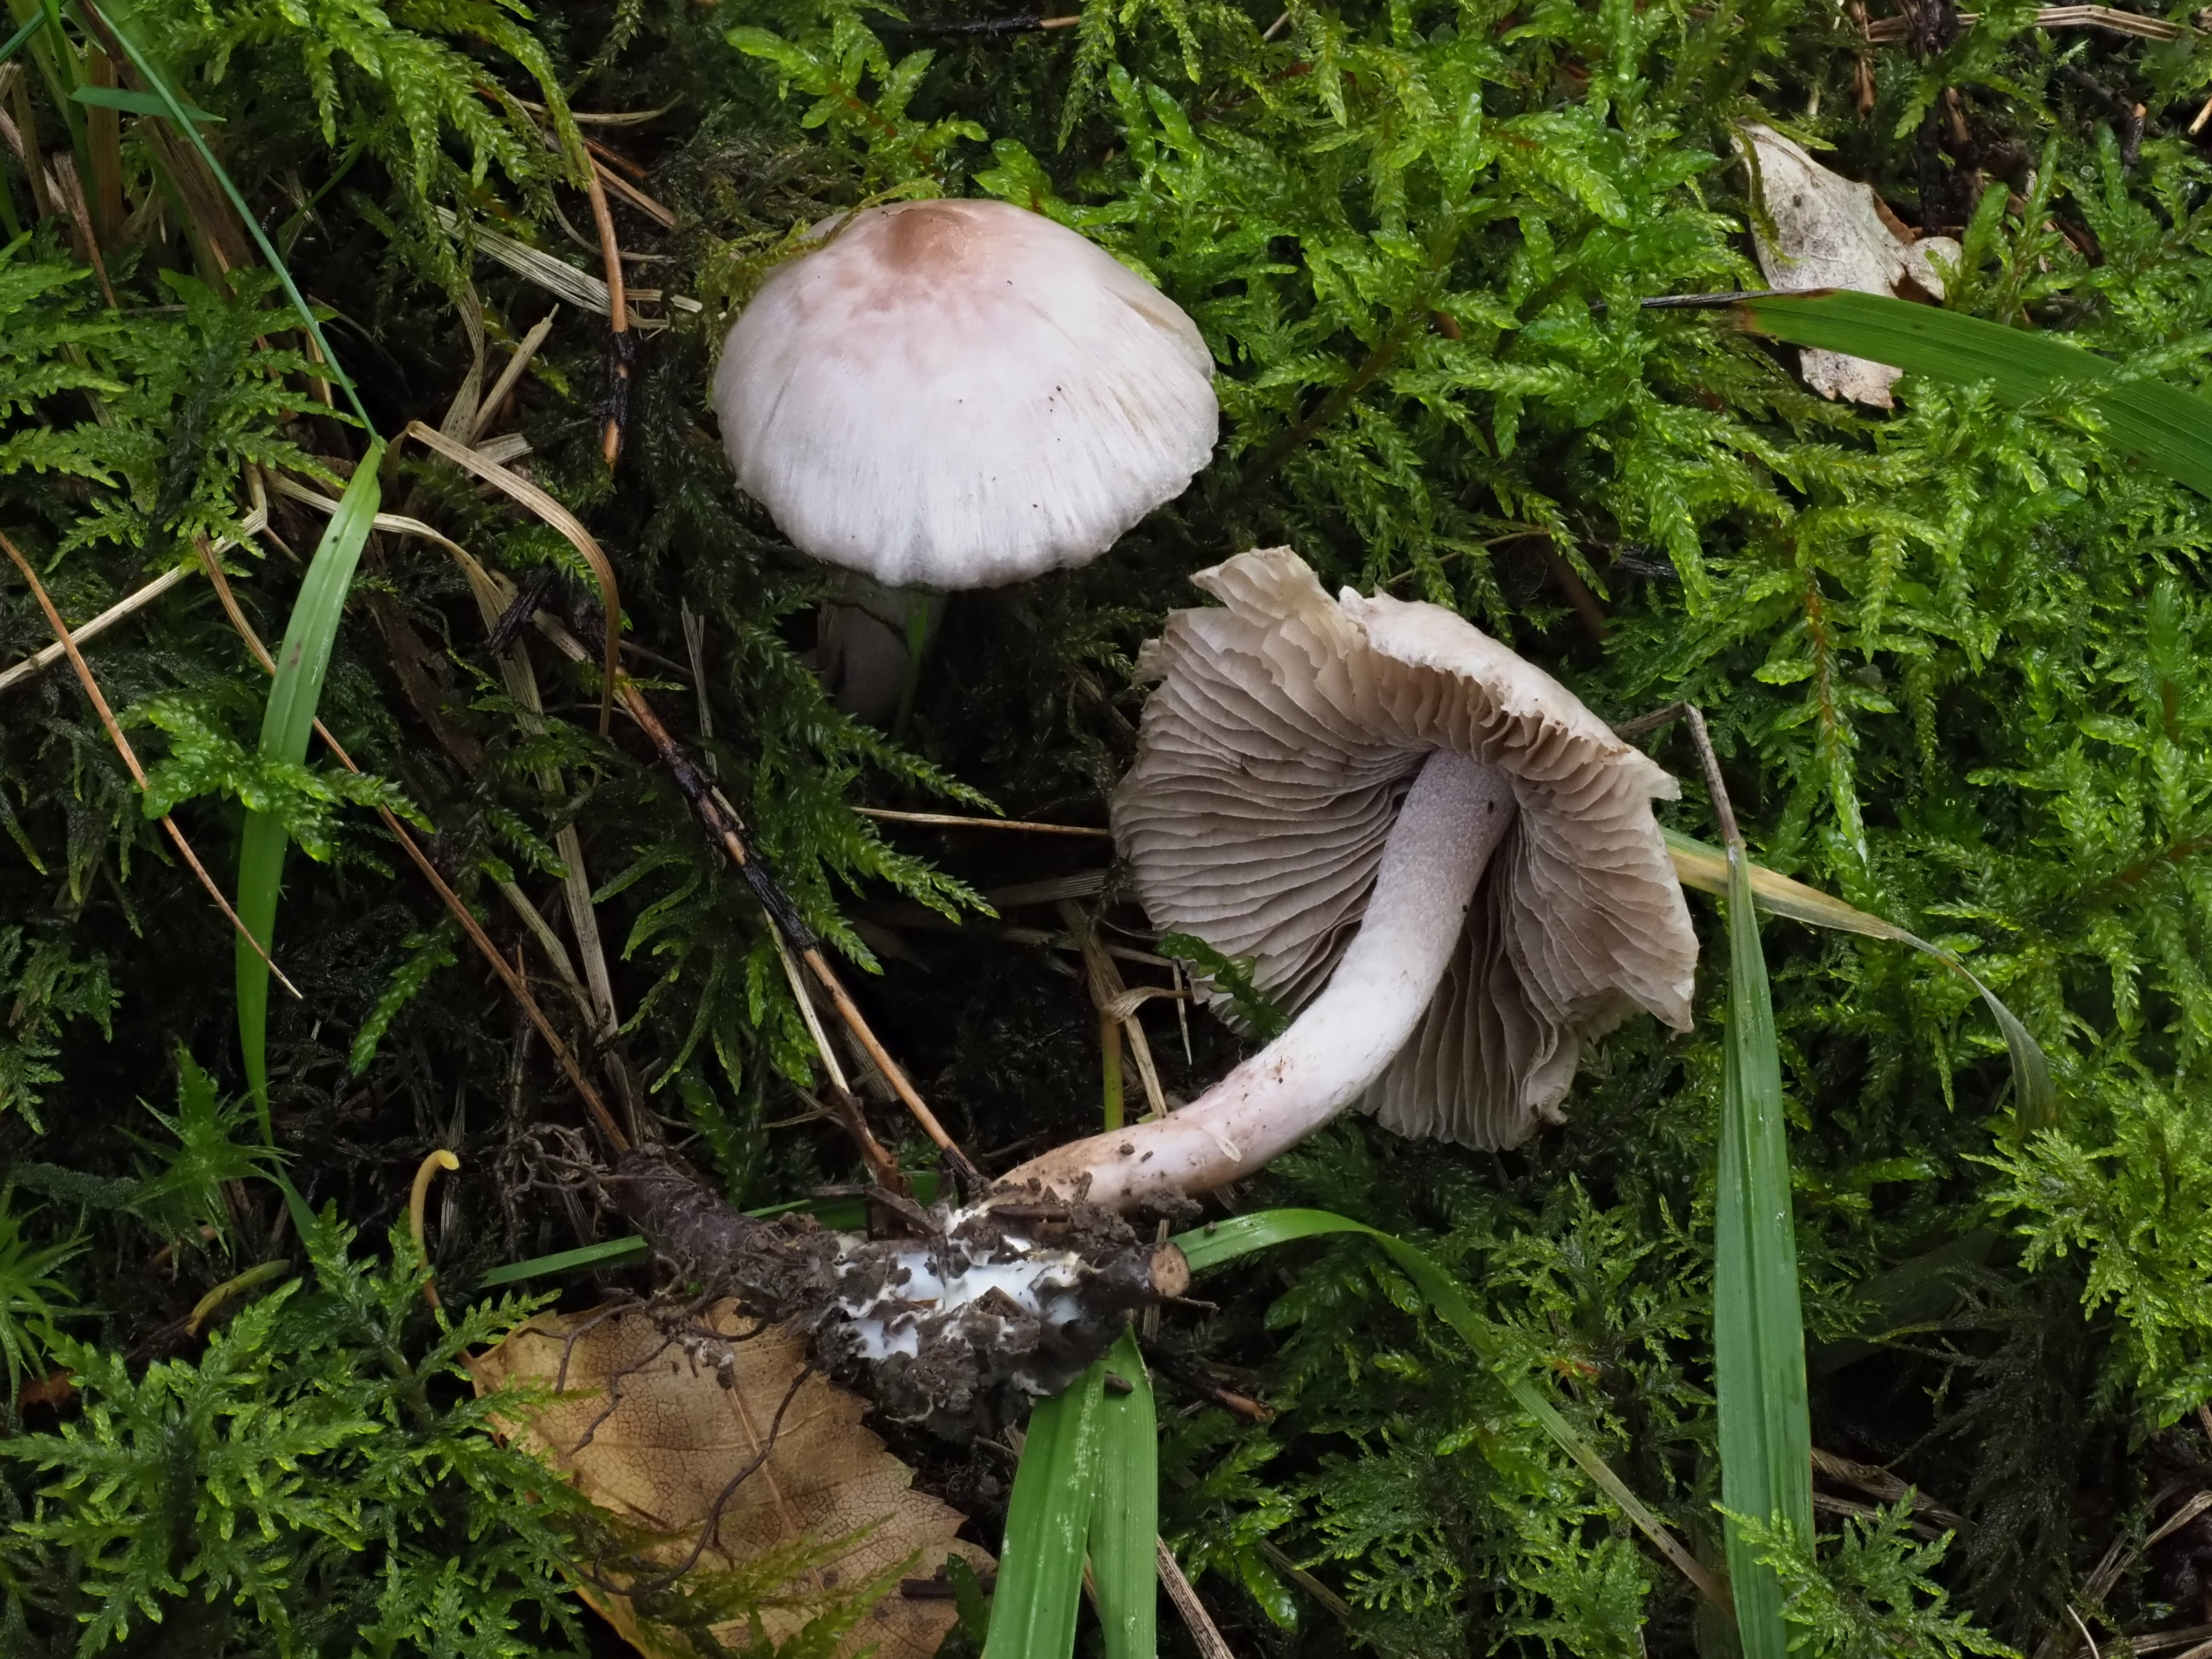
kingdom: Fungi
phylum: Basidiomycota
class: Agaricomycetes
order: Agaricales
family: Inocybaceae
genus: Inocybe
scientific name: Inocybe geophylla
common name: White fibrecap
